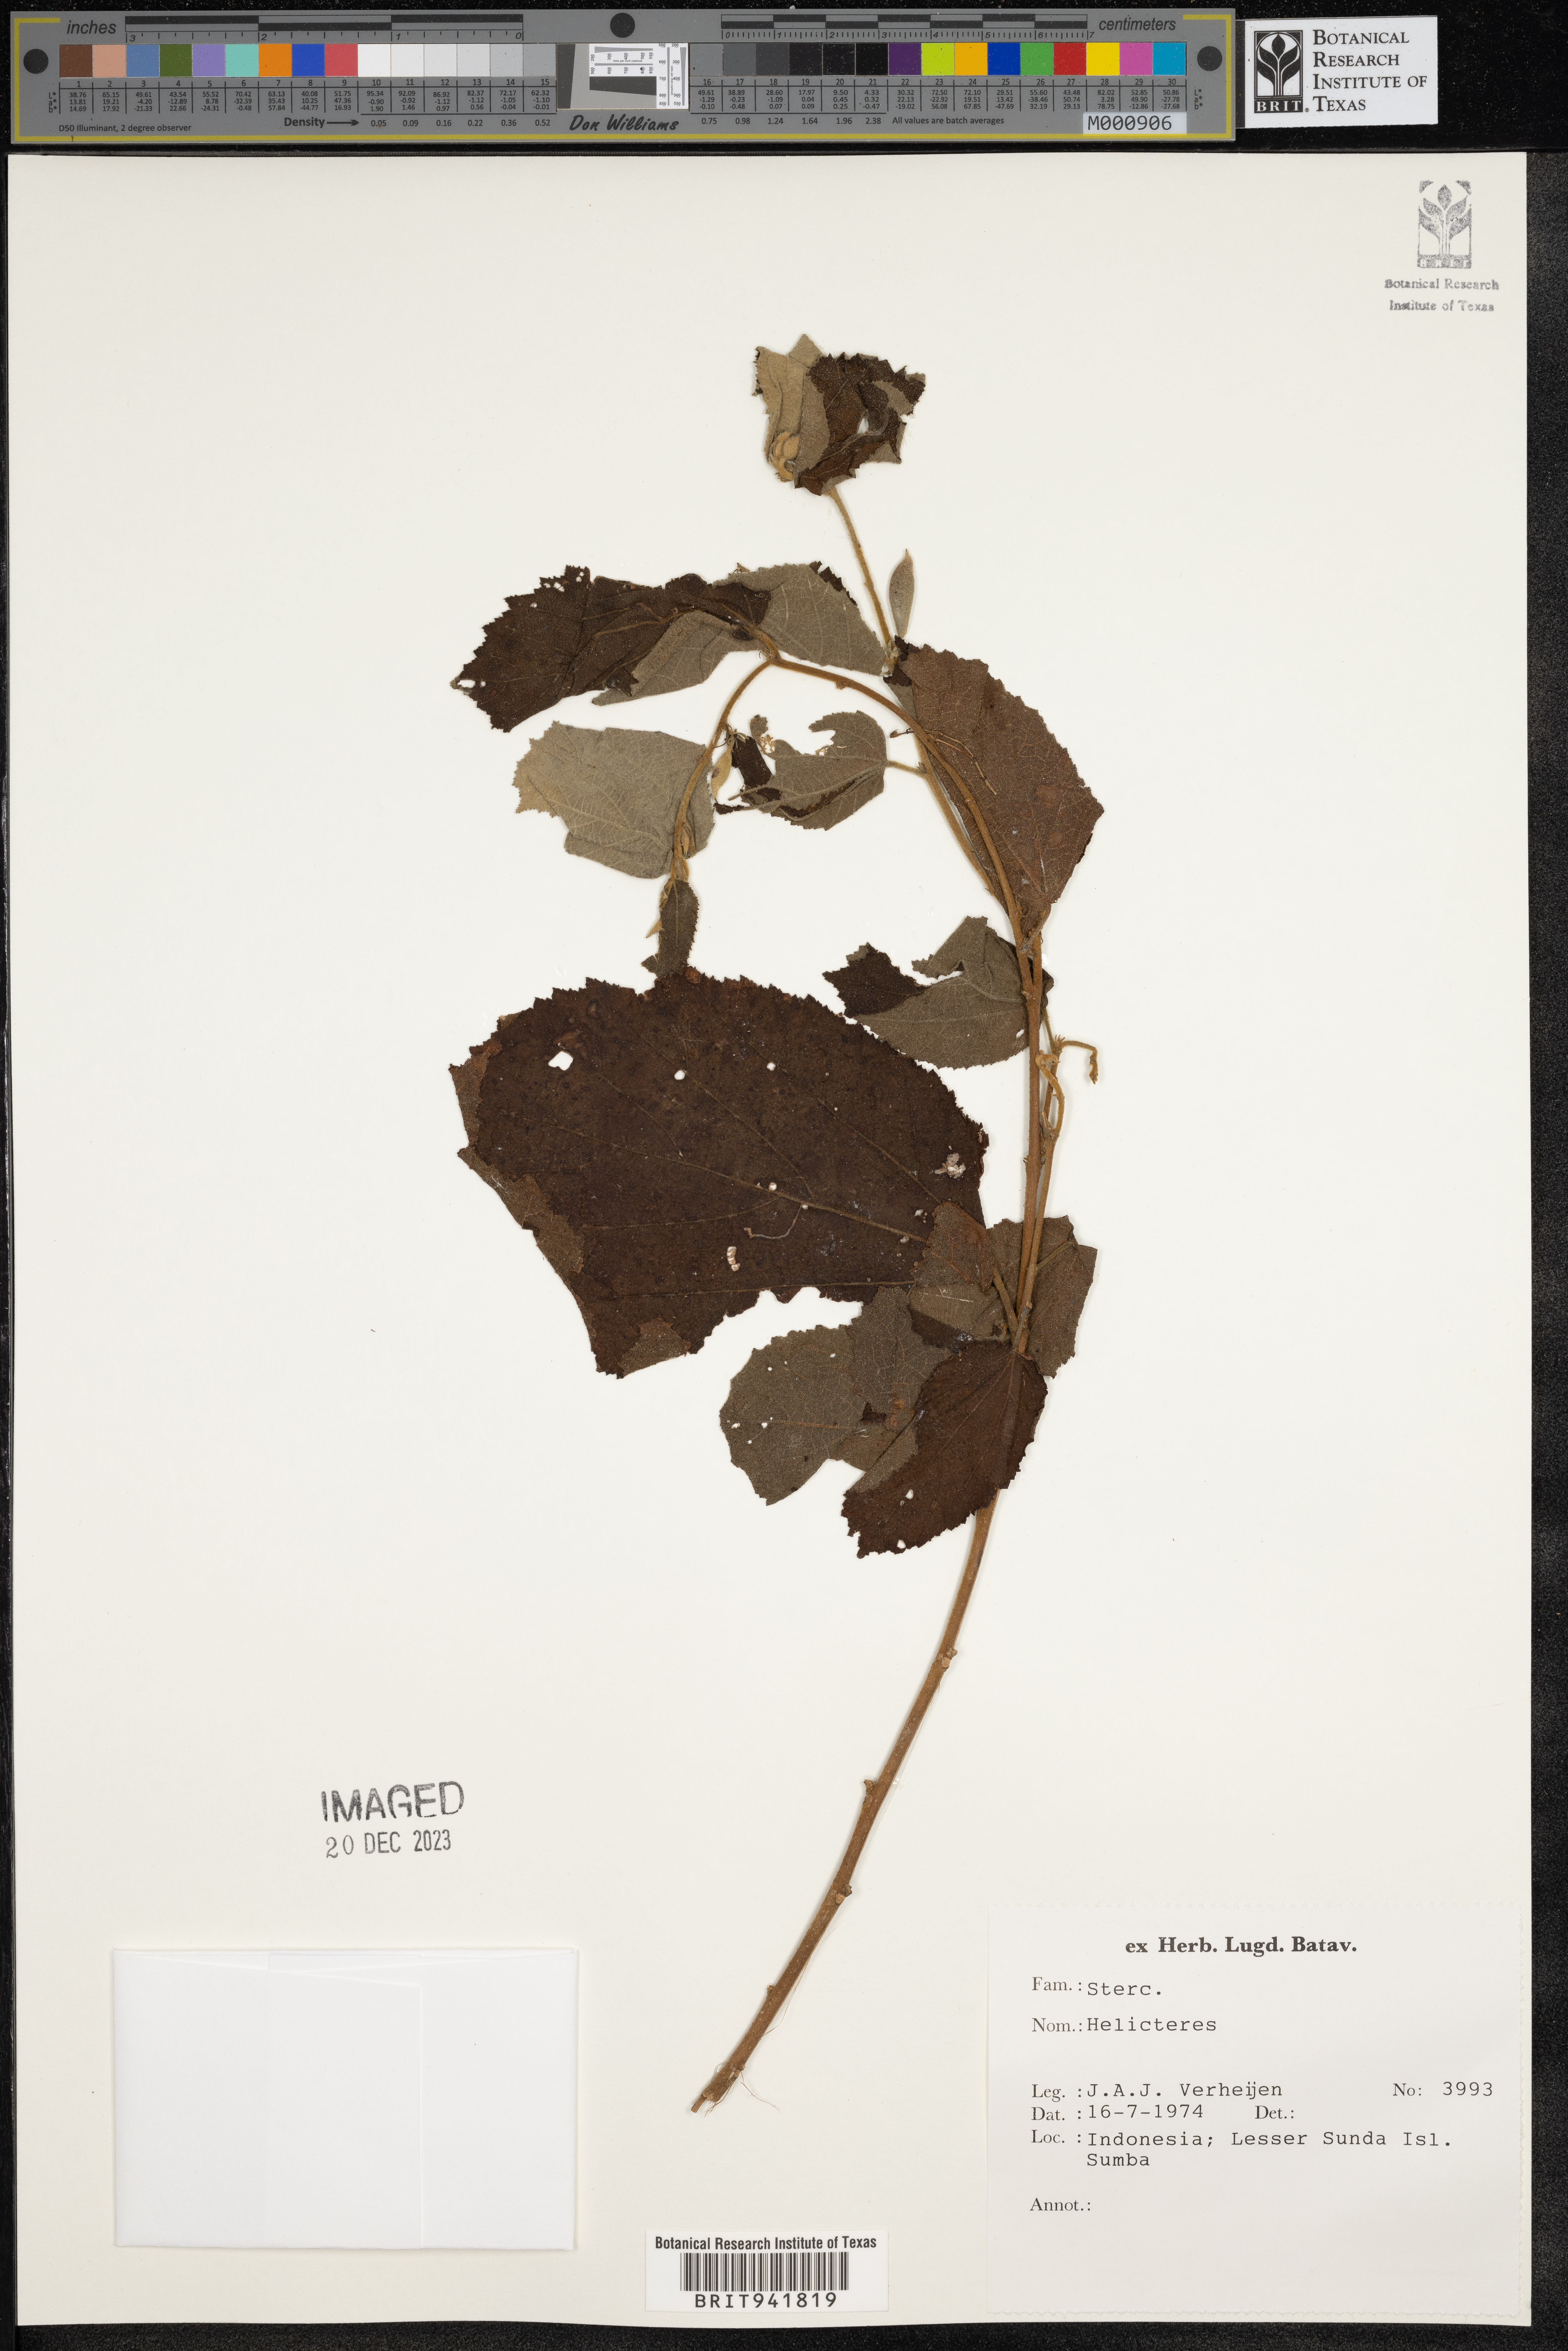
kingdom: Plantae
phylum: Tracheophyta
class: Magnoliopsida
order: Malvales
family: Malvaceae
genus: Helicteres
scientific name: Helicteres
